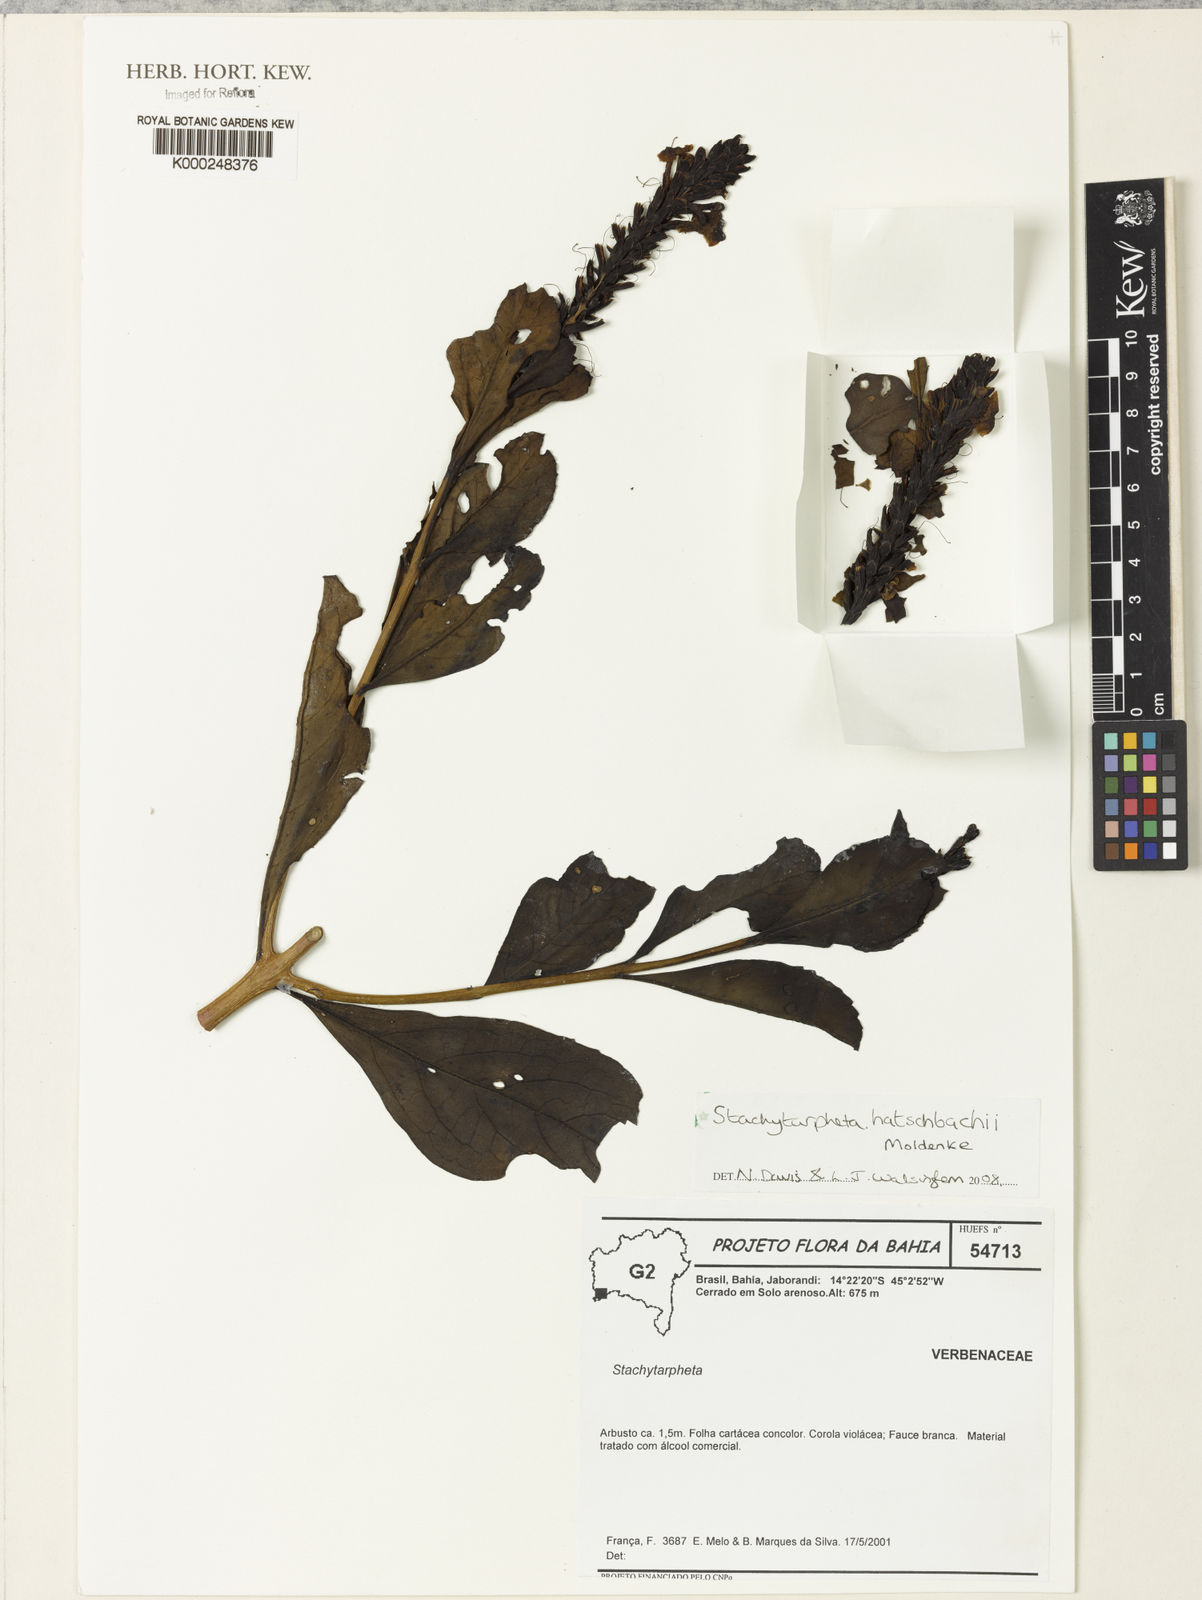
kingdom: Plantae
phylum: Tracheophyta
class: Magnoliopsida
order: Lamiales
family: Verbenaceae
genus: Stachytarpheta
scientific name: Stachytarpheta hatschbachii
